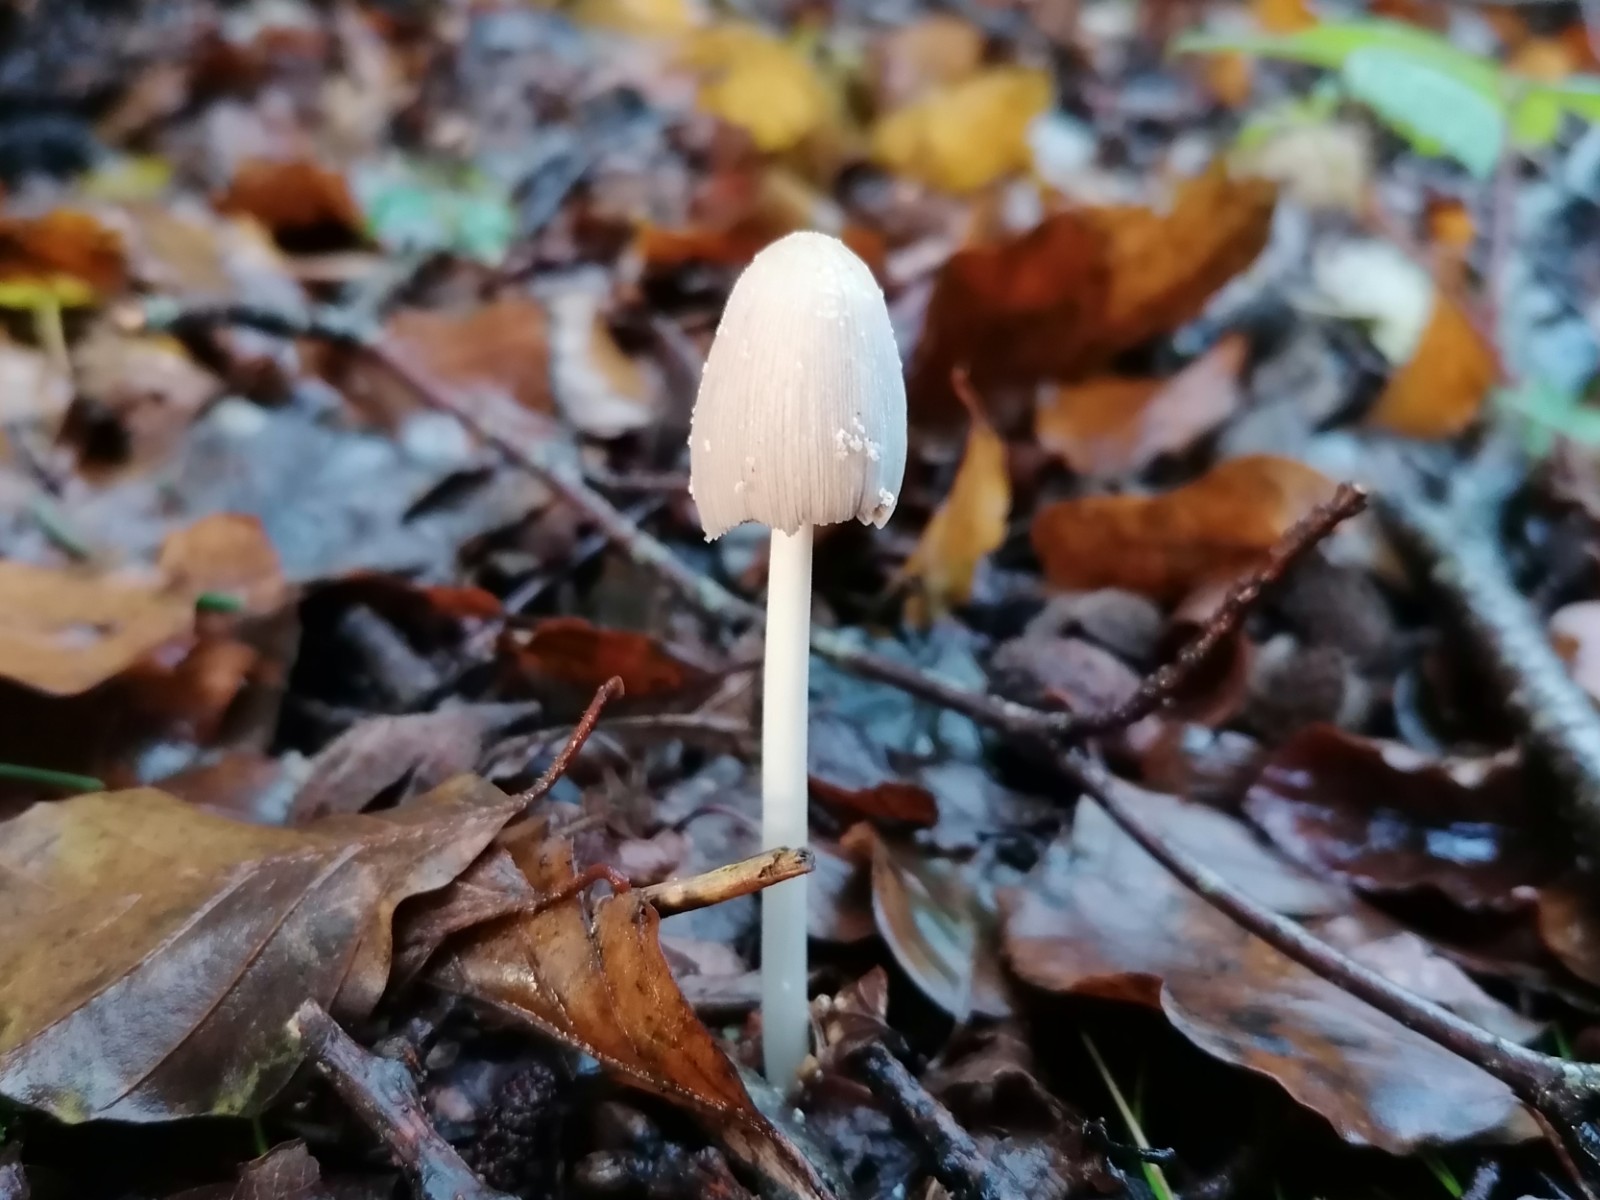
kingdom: Fungi
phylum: Basidiomycota
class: Agaricomycetes
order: Agaricales
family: Psathyrellaceae
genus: Coprinellus
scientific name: Coprinellus
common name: blækhat
